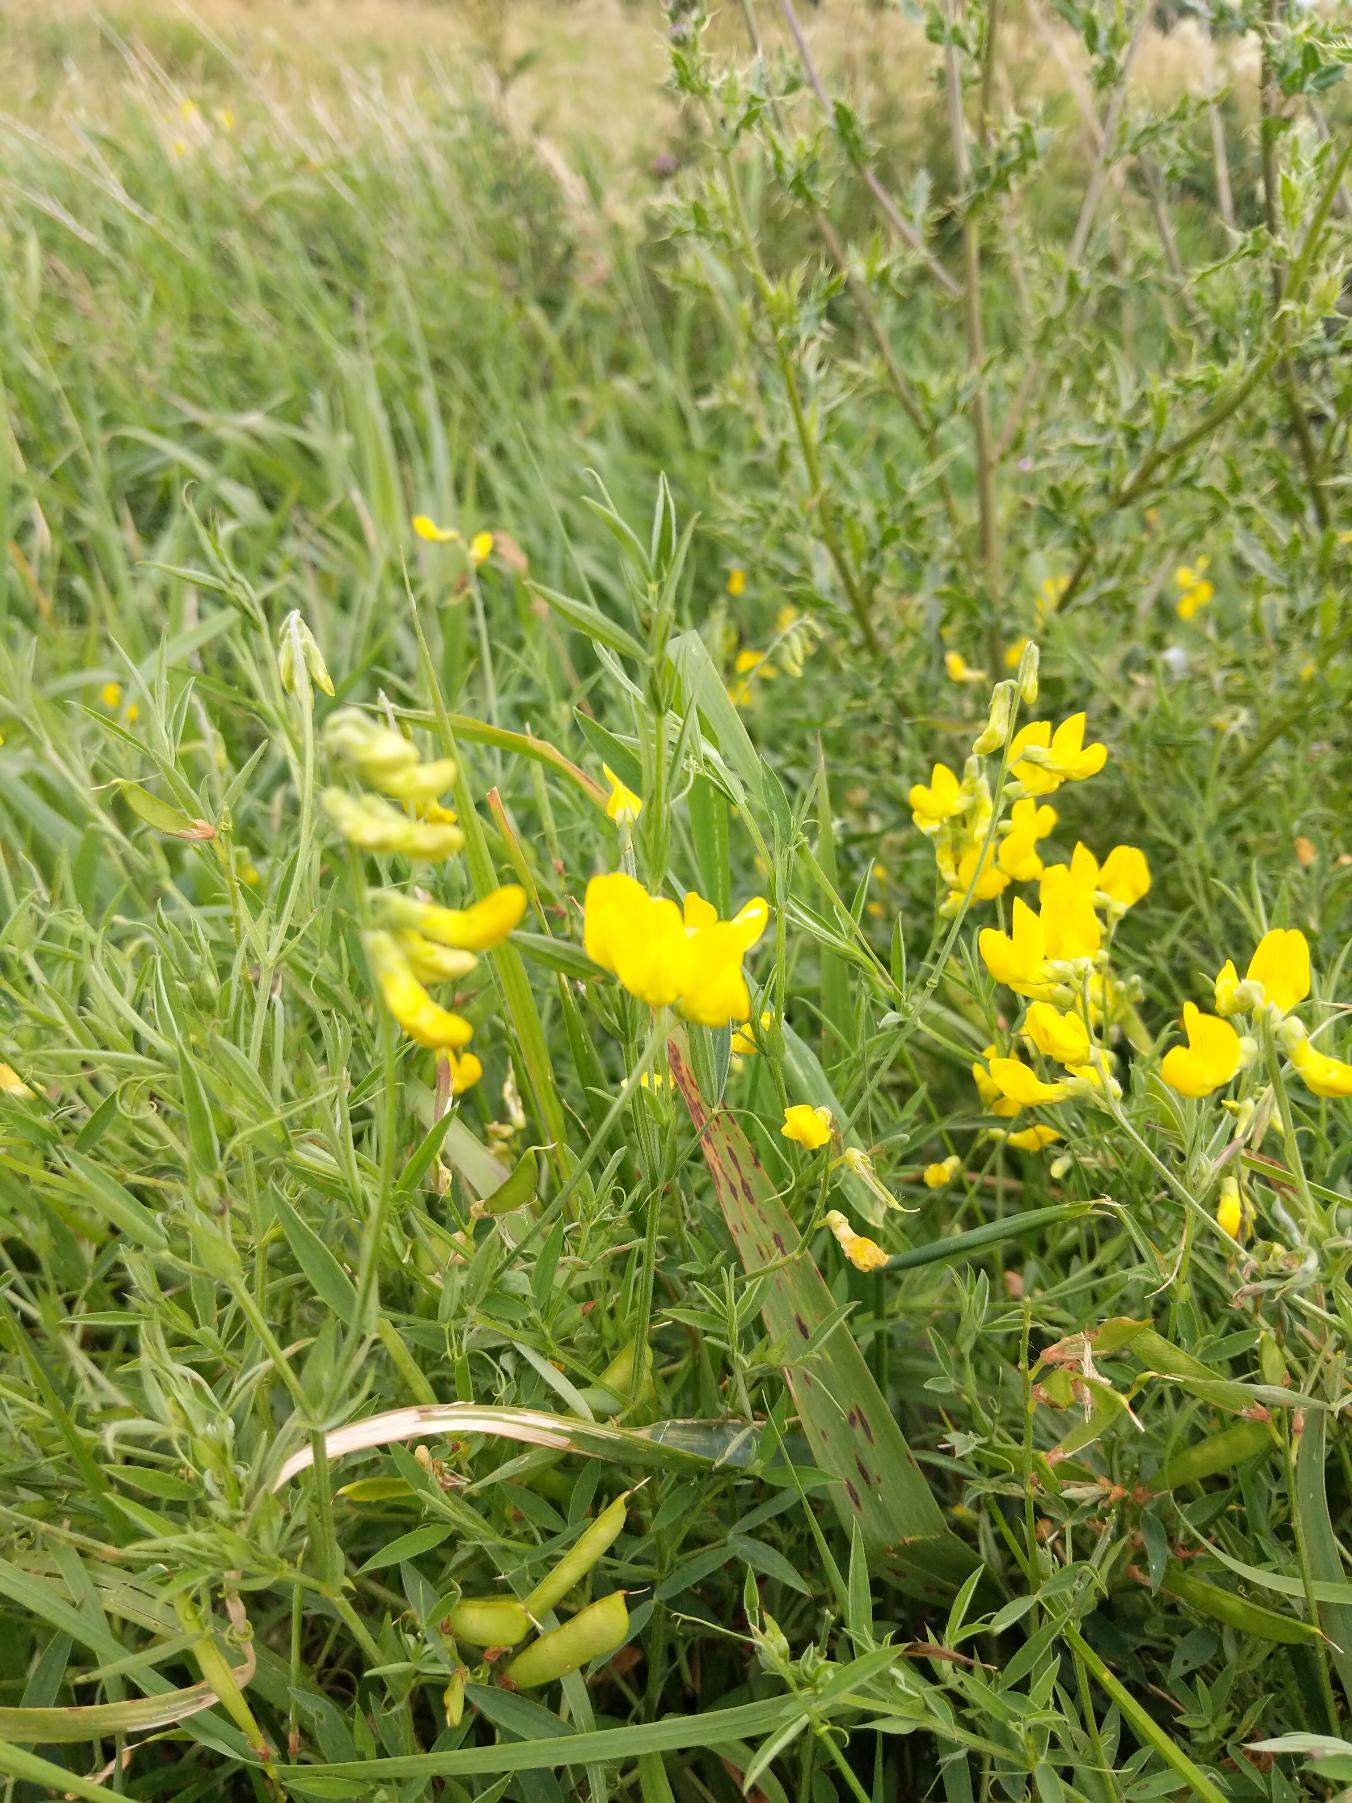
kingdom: Plantae
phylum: Tracheophyta
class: Magnoliopsida
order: Fabales
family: Fabaceae
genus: Lathyrus
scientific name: Lathyrus pratensis
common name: Gul fladbælg
